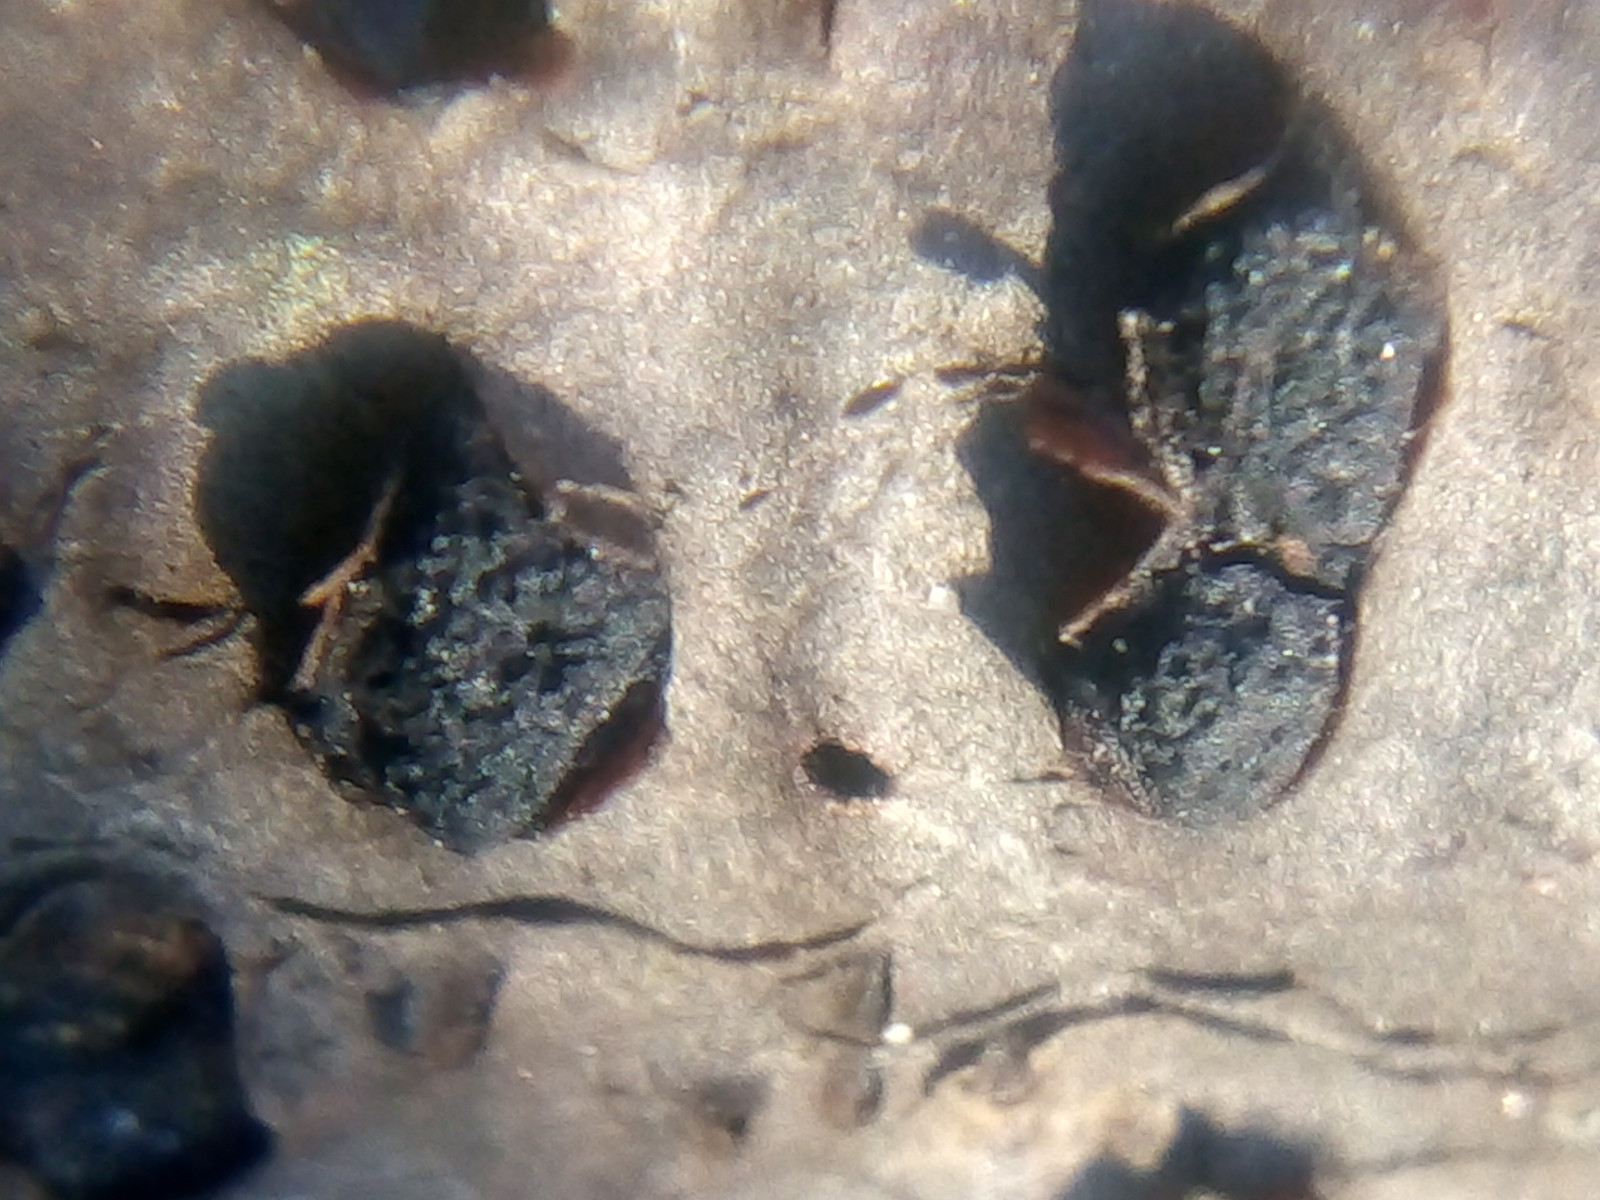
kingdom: Fungi
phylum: Ascomycota
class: Sordariomycetes
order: Xylariales
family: Diatrypaceae
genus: Diatrypella
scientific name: Diatrypella quercina
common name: ege-kulskorpe
